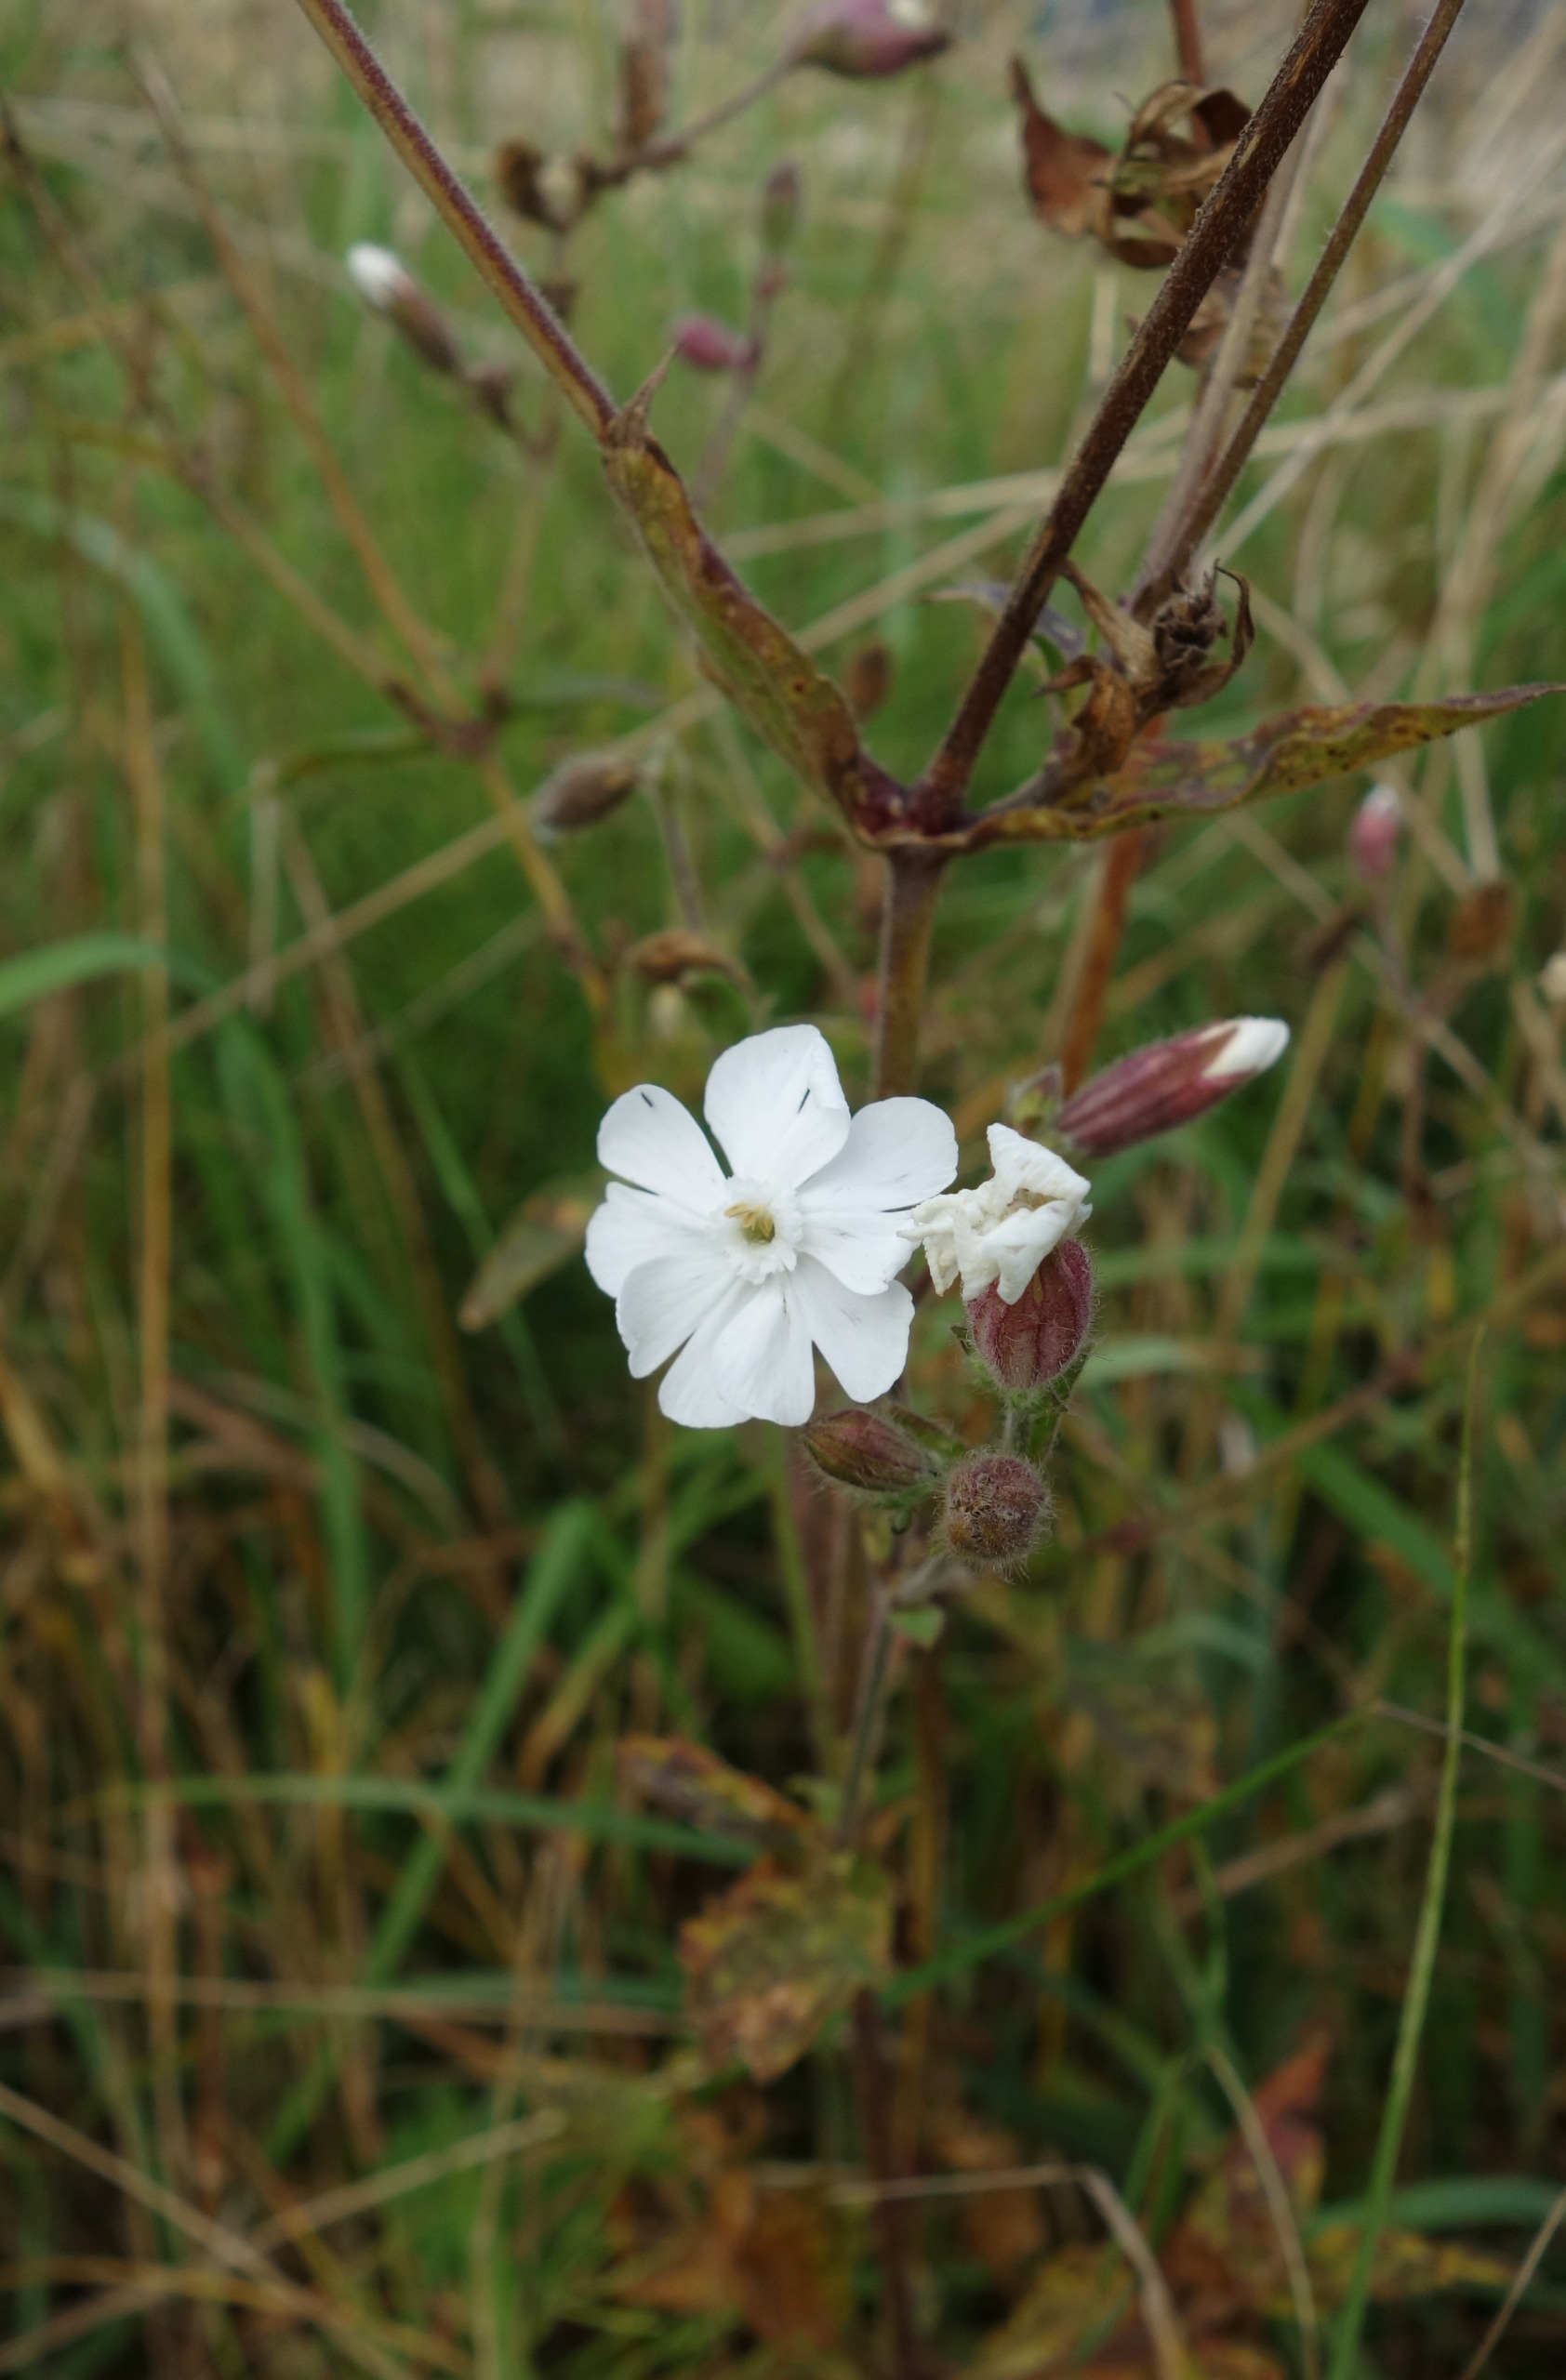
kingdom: Plantae
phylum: Tracheophyta
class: Magnoliopsida
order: Caryophyllales
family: Caryophyllaceae
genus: Silene
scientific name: Silene latifolia
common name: Aftenpragtstjerne
